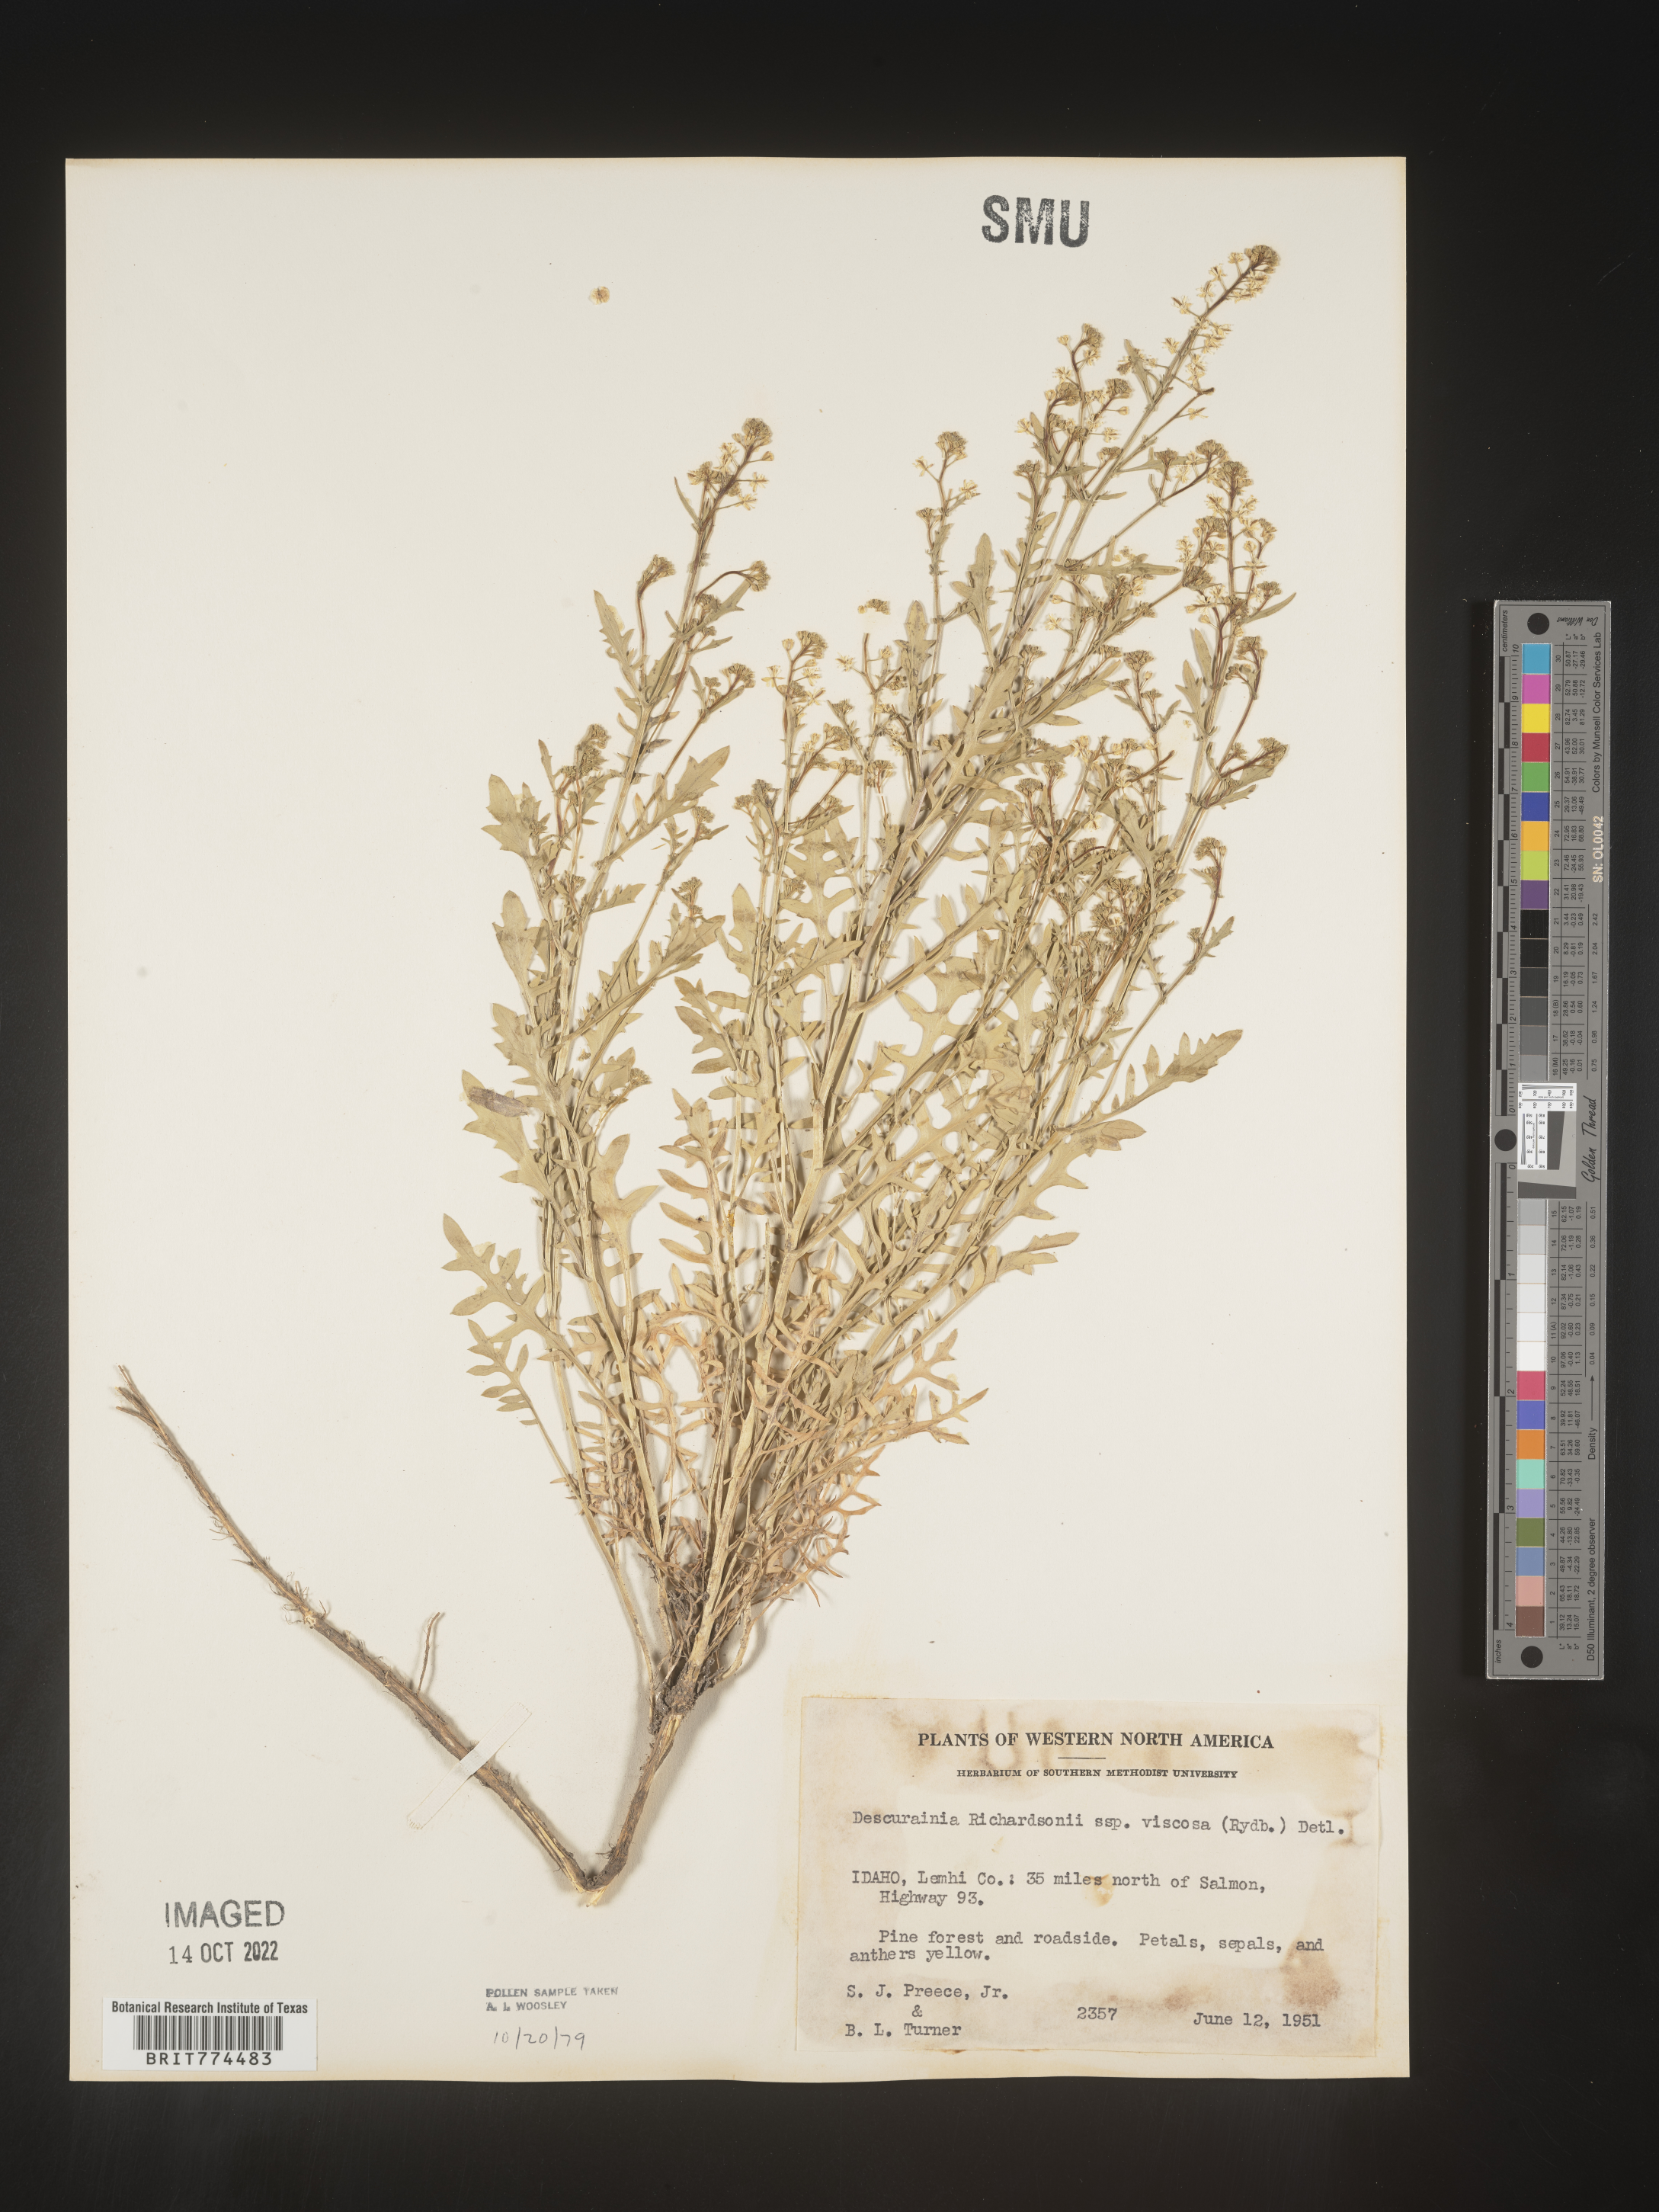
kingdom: Plantae
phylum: Tracheophyta
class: Magnoliopsida
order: Brassicales
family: Brassicaceae
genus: Descurainia
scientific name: Descurainia
